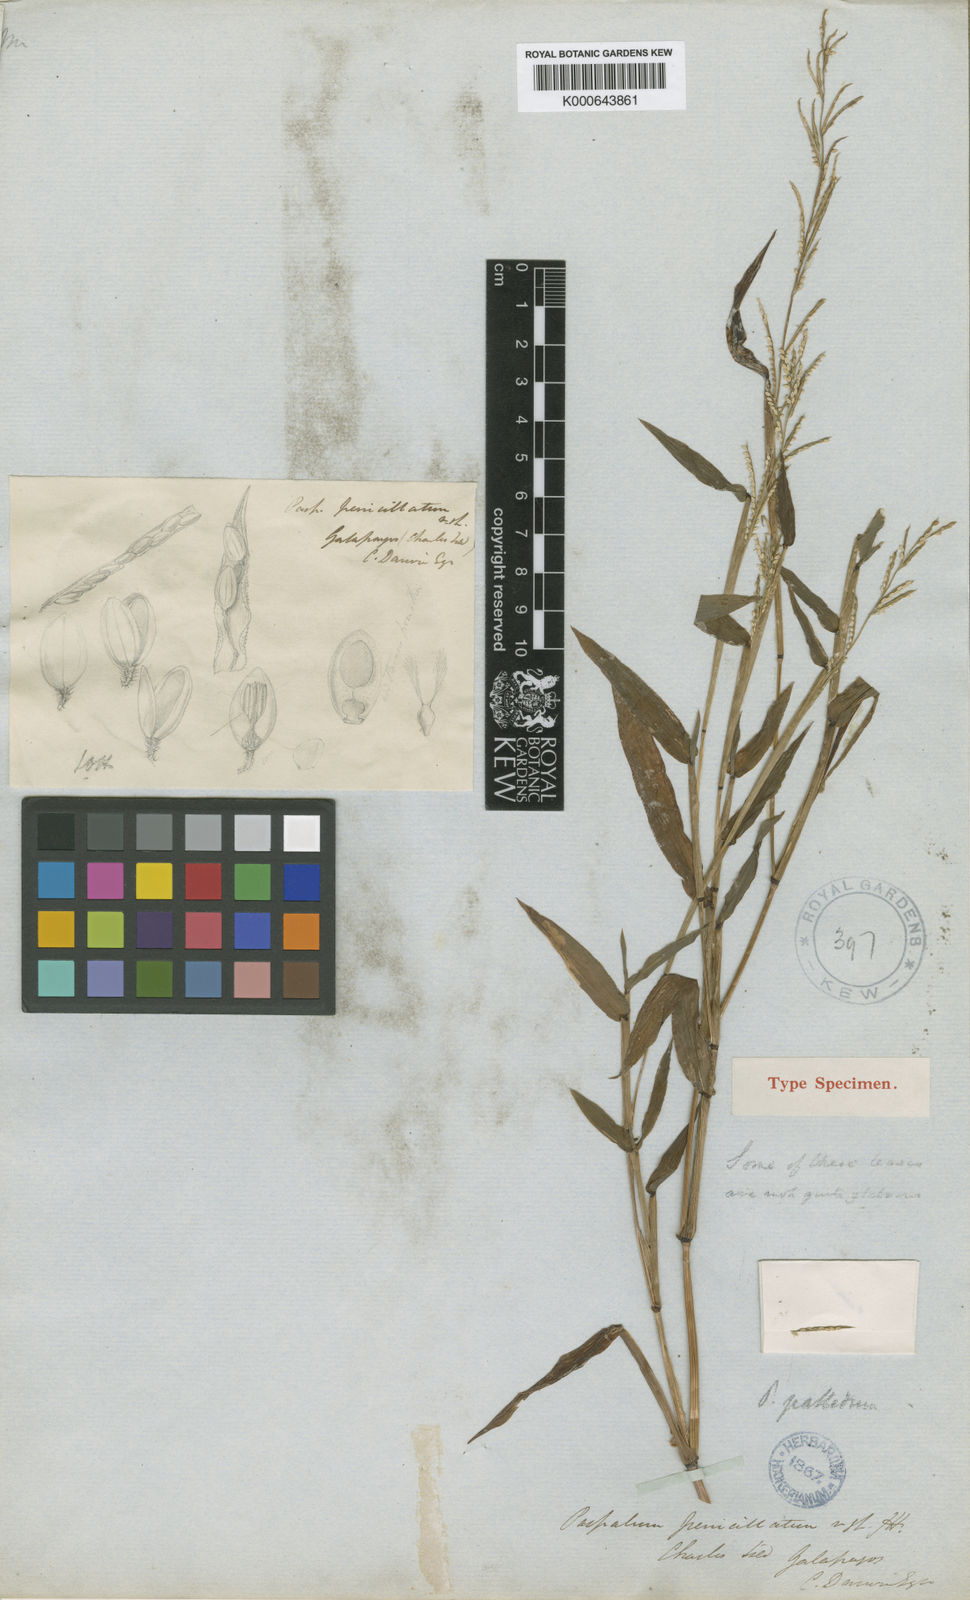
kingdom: Plantae
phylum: Tracheophyta
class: Liliopsida
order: Poales
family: Poaceae
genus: Paspalum
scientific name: Paspalum penicillatum
